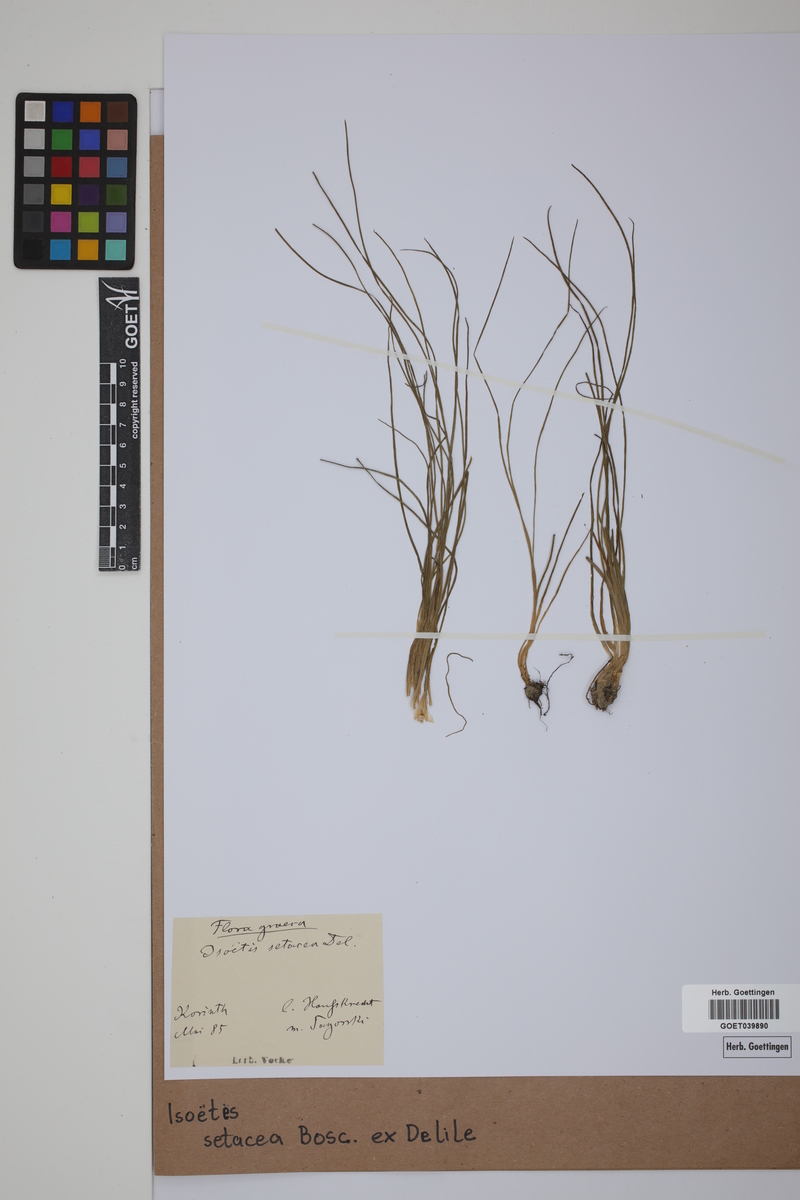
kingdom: Plantae
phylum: Tracheophyta
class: Lycopodiopsida
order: Isoetales
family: Isoetaceae
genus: Isoetes
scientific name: Isoetes longissima
